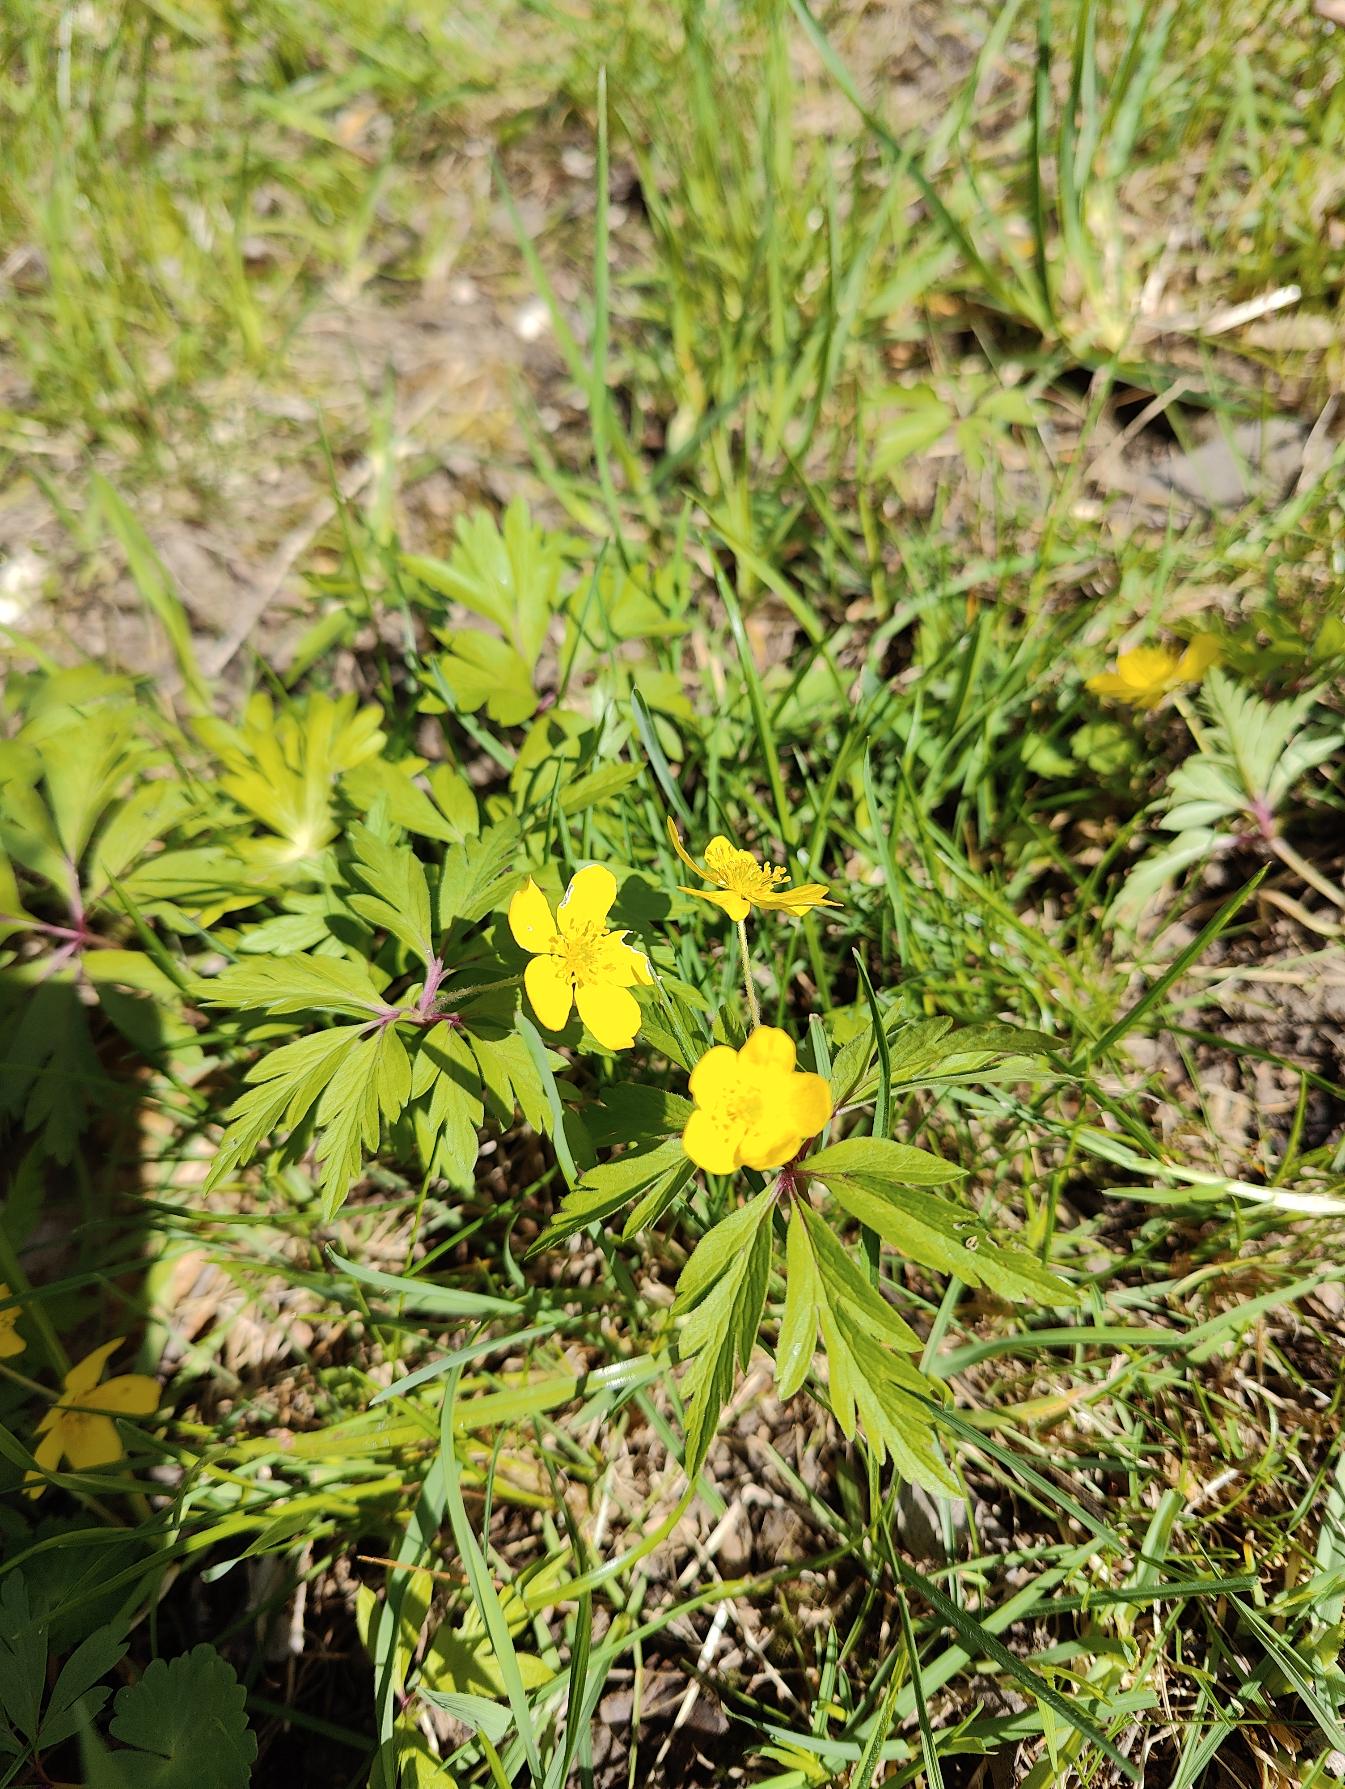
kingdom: Plantae
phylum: Tracheophyta
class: Magnoliopsida
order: Ranunculales
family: Ranunculaceae
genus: Anemone
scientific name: Anemone ranunculoides
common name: Gul anemone
